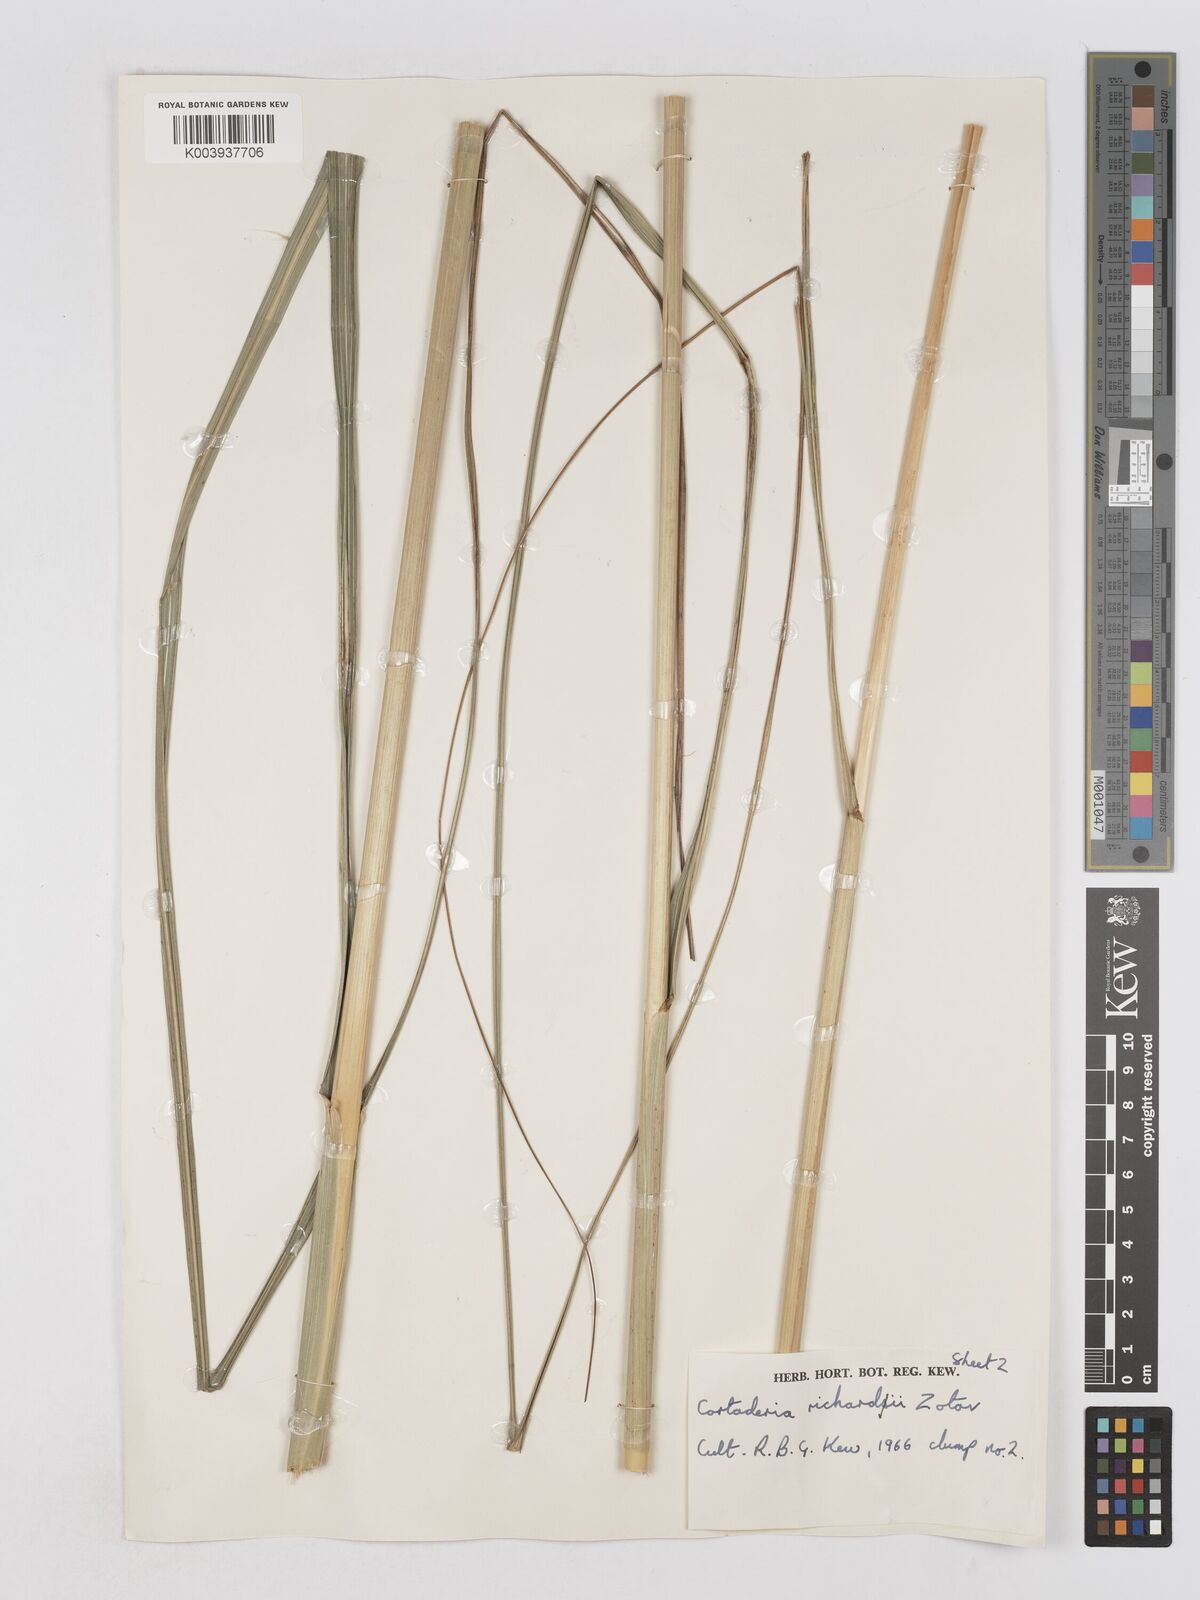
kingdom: Plantae
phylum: Tracheophyta
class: Liliopsida
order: Poales
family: Poaceae
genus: Austroderia
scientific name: Austroderia richardii
